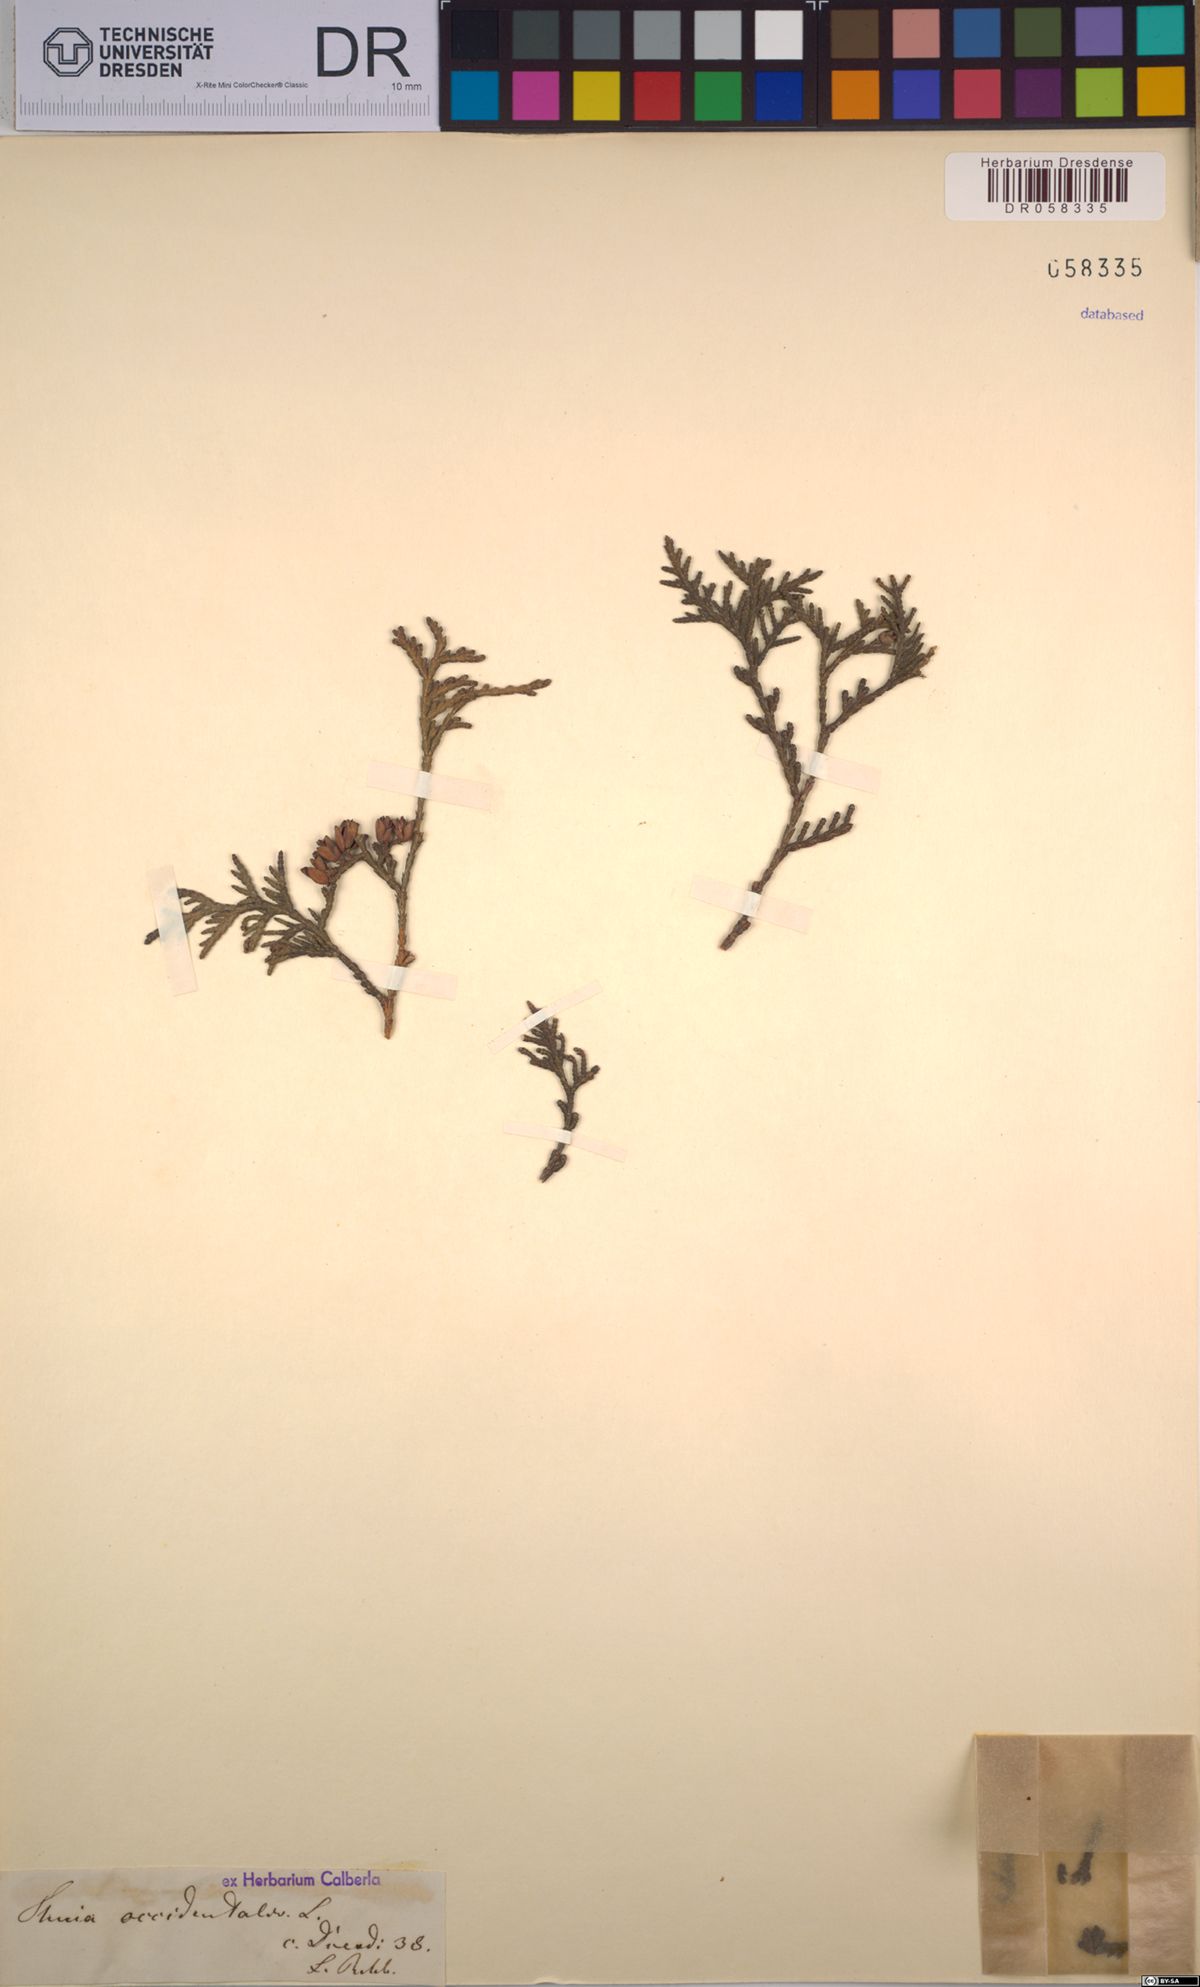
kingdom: Plantae
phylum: Tracheophyta
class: Pinopsida
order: Pinales
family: Cupressaceae
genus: Thuja
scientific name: Thuja occidentalis
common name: Northern white-cedar
